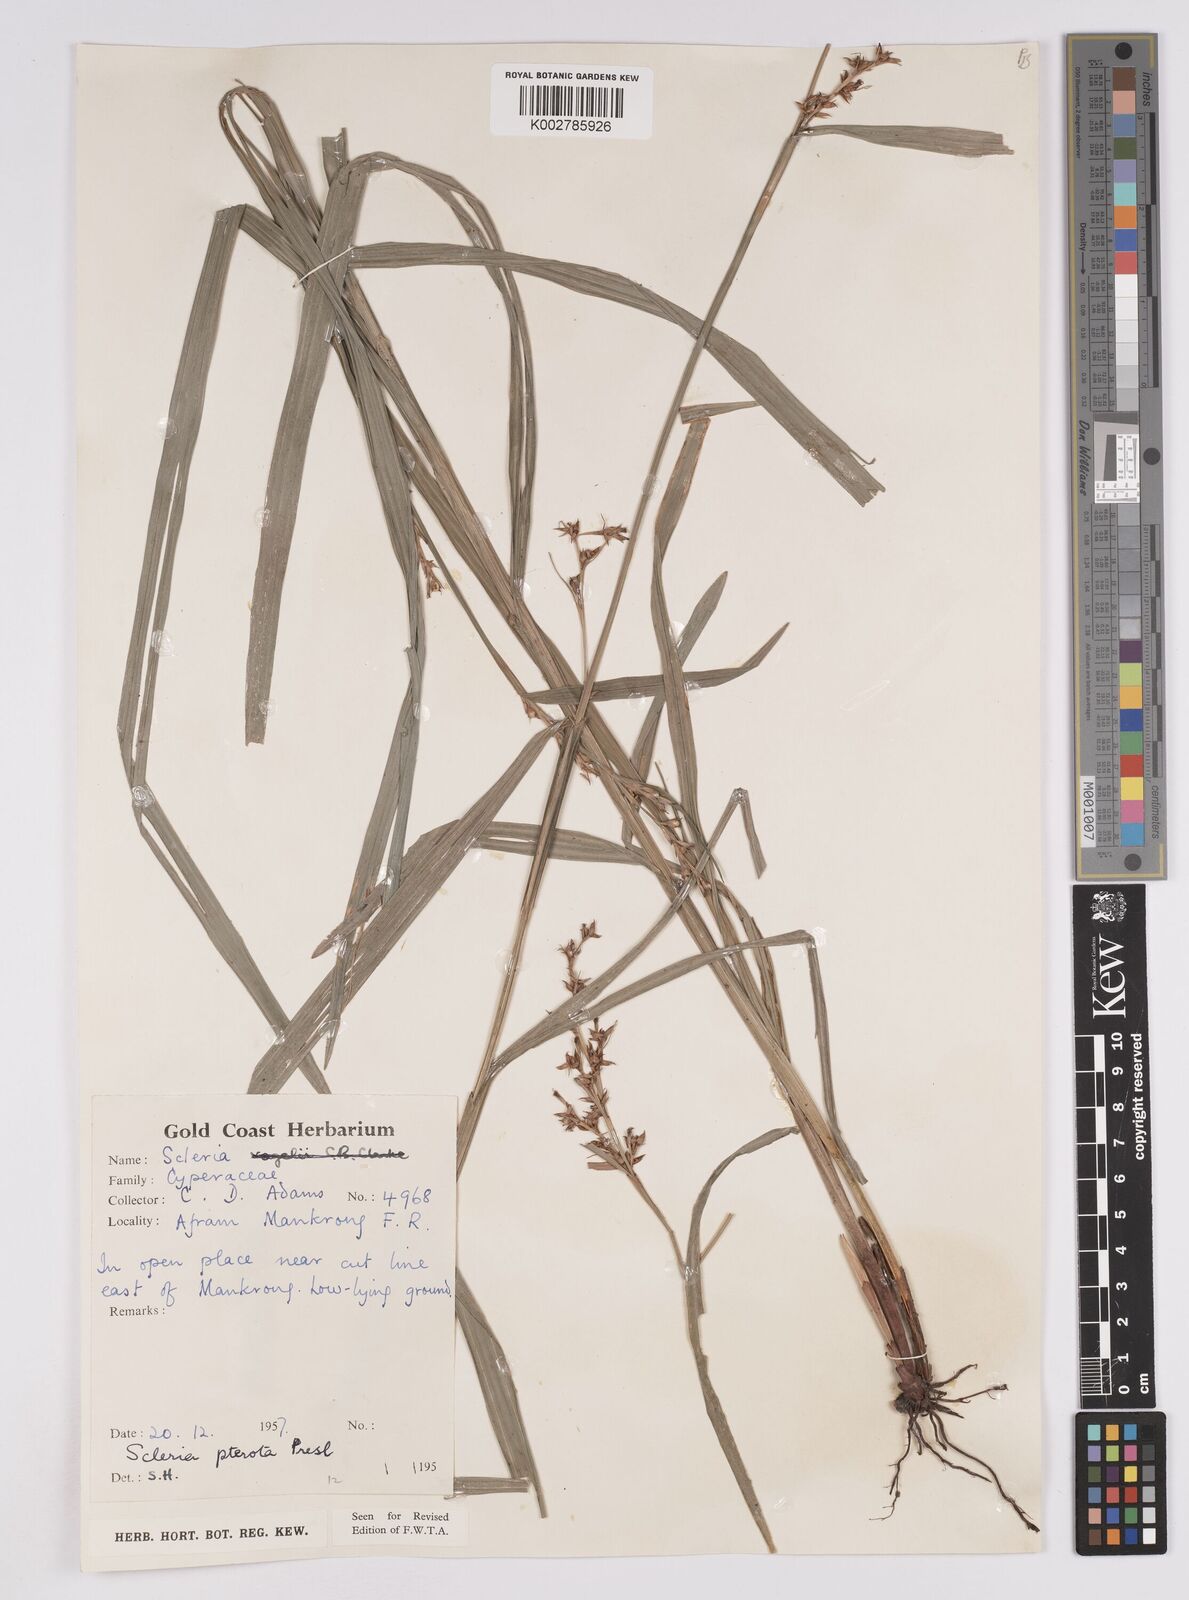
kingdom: Plantae
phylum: Tracheophyta
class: Liliopsida
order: Poales
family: Cyperaceae
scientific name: Cyperaceae
